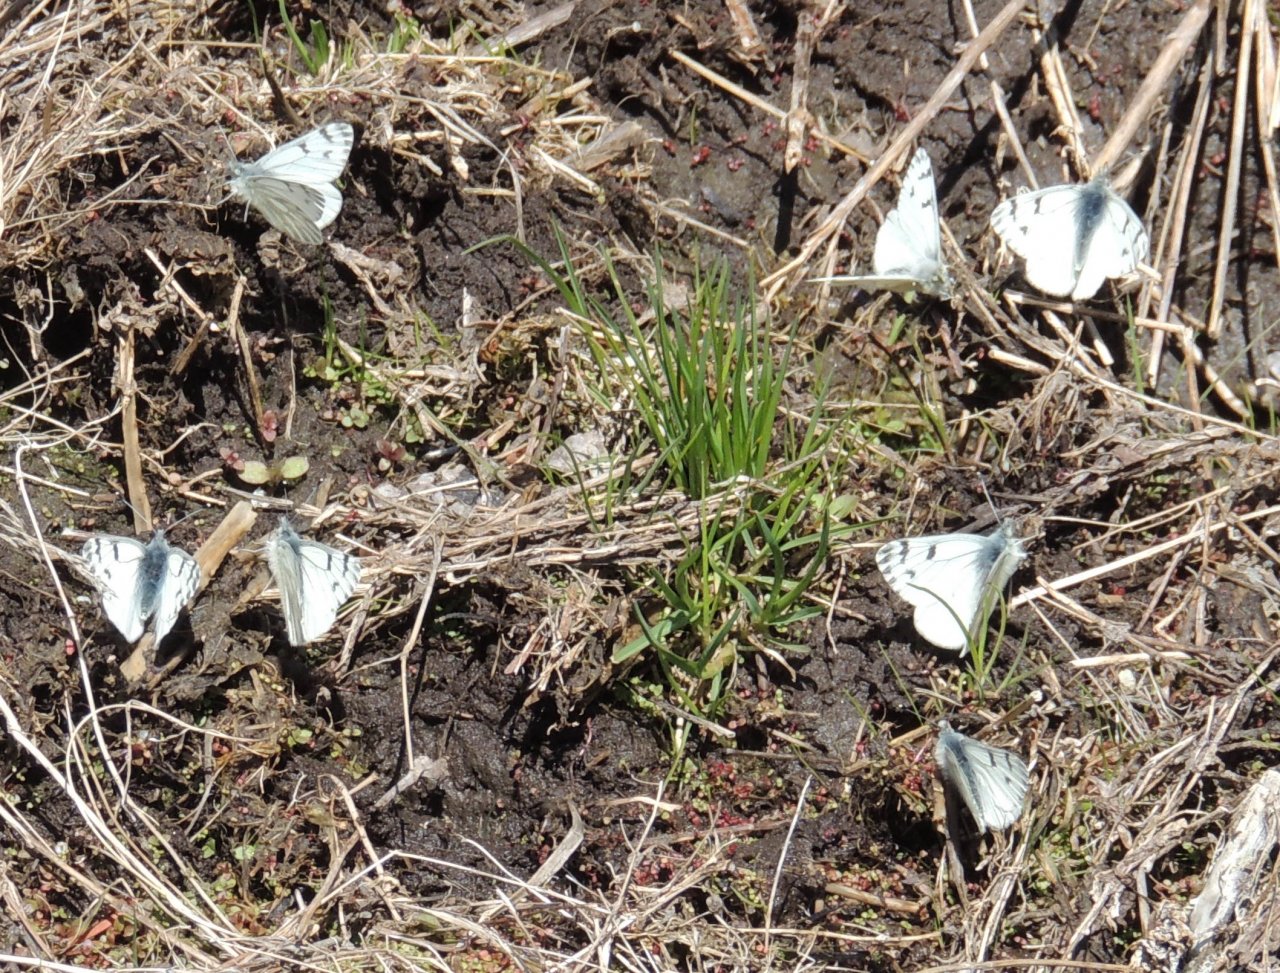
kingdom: Animalia
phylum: Arthropoda
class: Insecta
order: Lepidoptera
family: Pieridae
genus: Pontia
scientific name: Pontia sisymbrii
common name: Spring White
